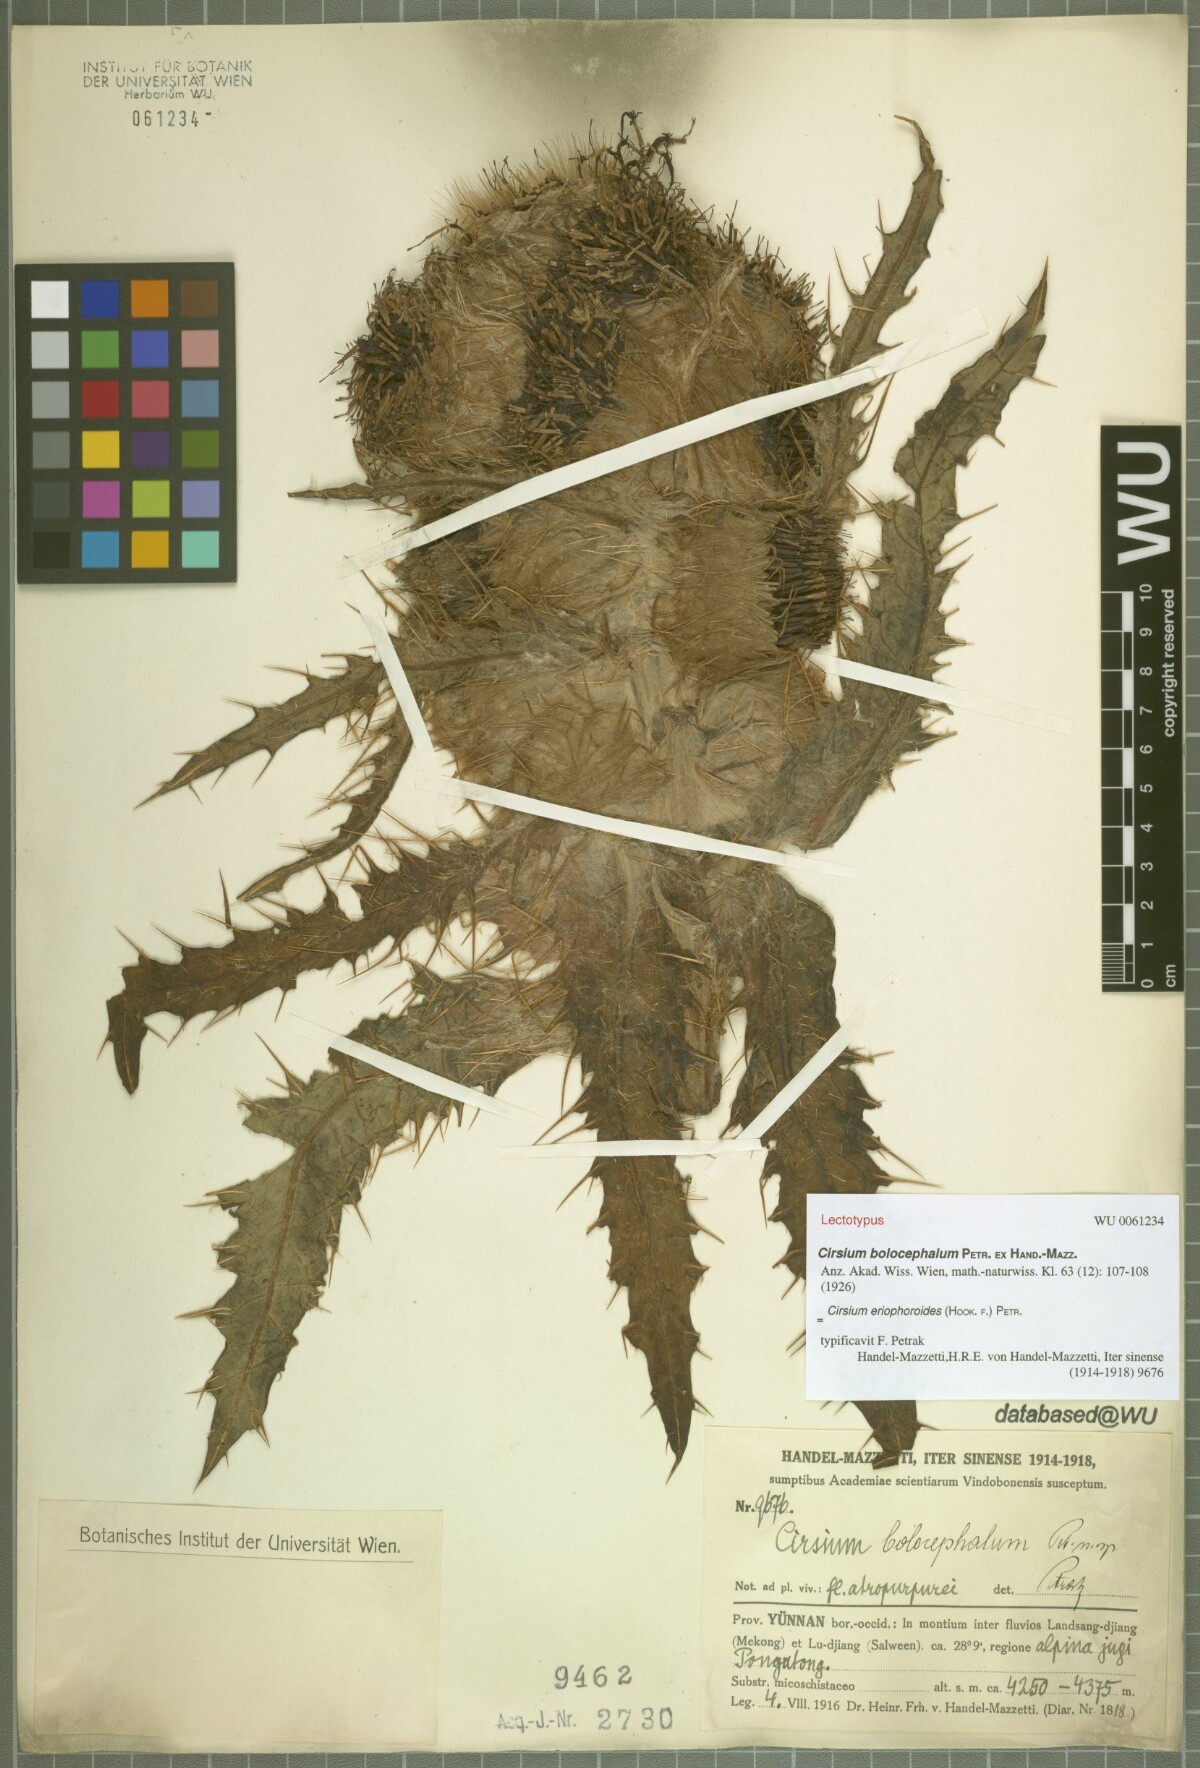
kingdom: Plantae
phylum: Tracheophyta
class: Magnoliopsida
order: Asterales
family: Asteraceae
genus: Cirsium
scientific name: Cirsium eriophoroides
